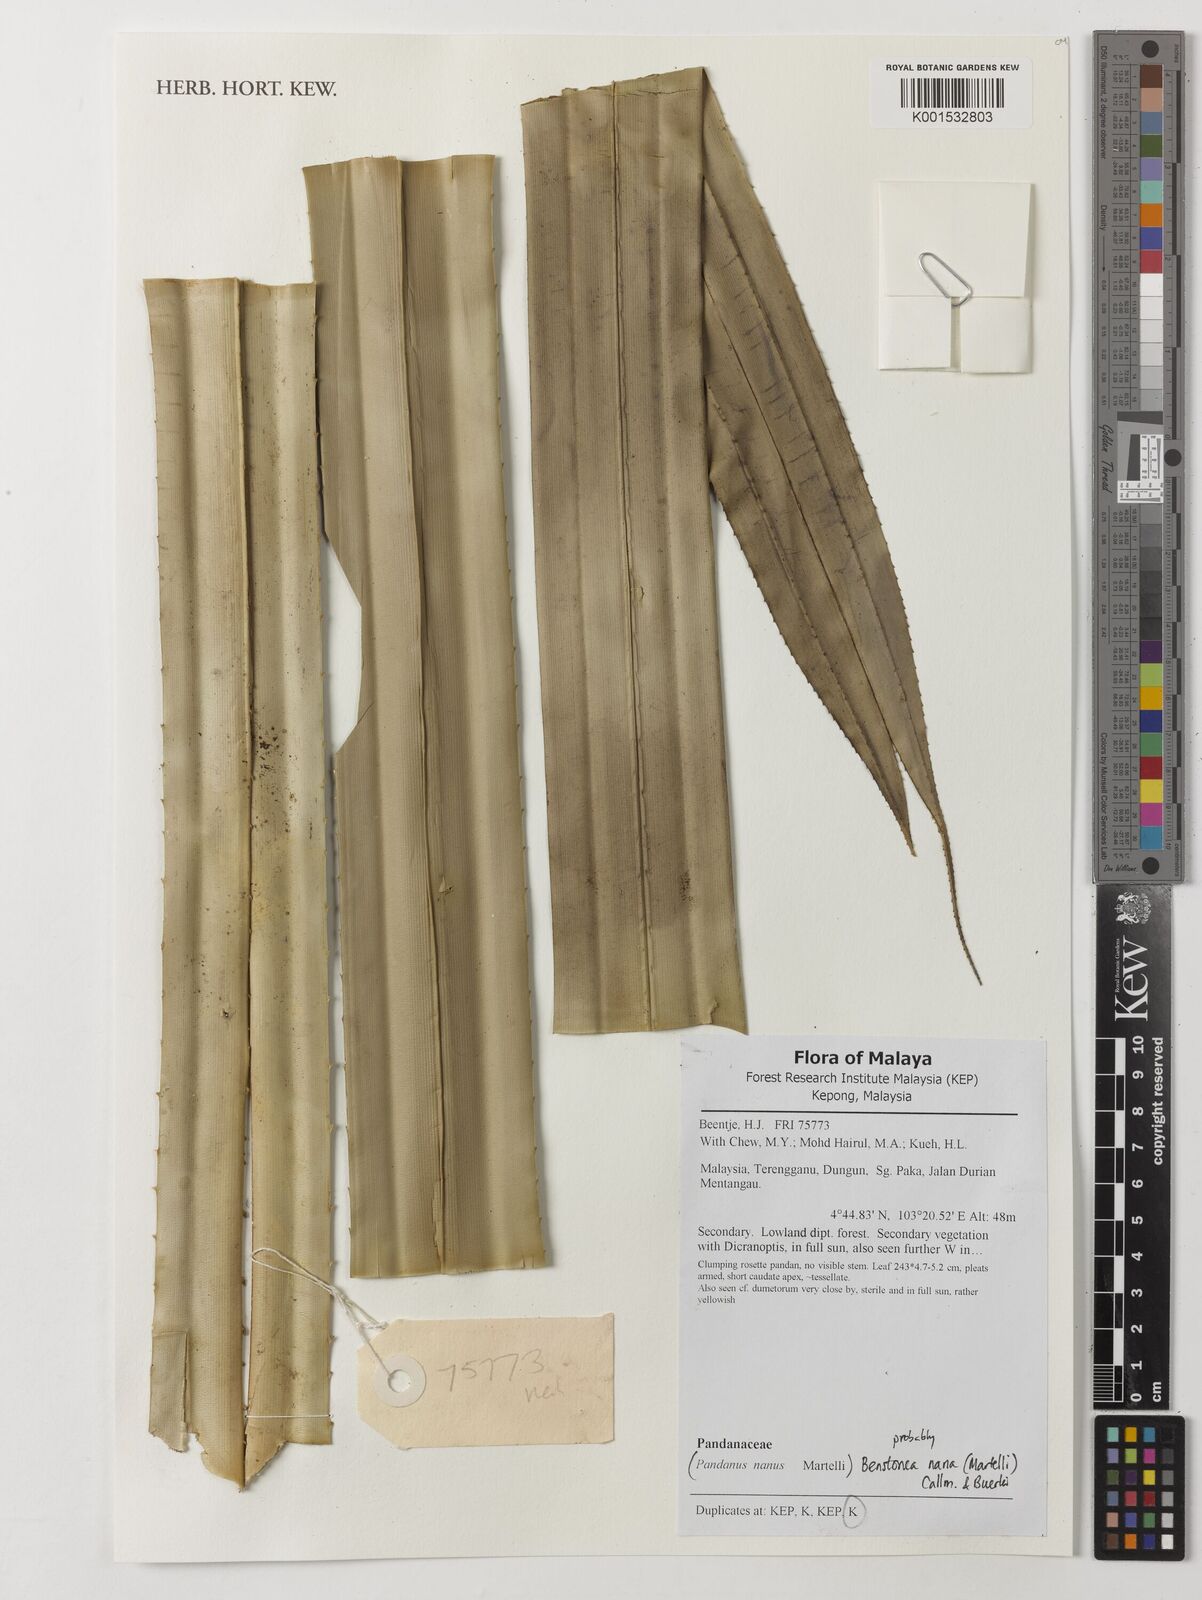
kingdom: Plantae
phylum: Tracheophyta
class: Liliopsida
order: Pandanales
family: Pandanaceae
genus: Benstonea
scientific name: Benstonea nana
